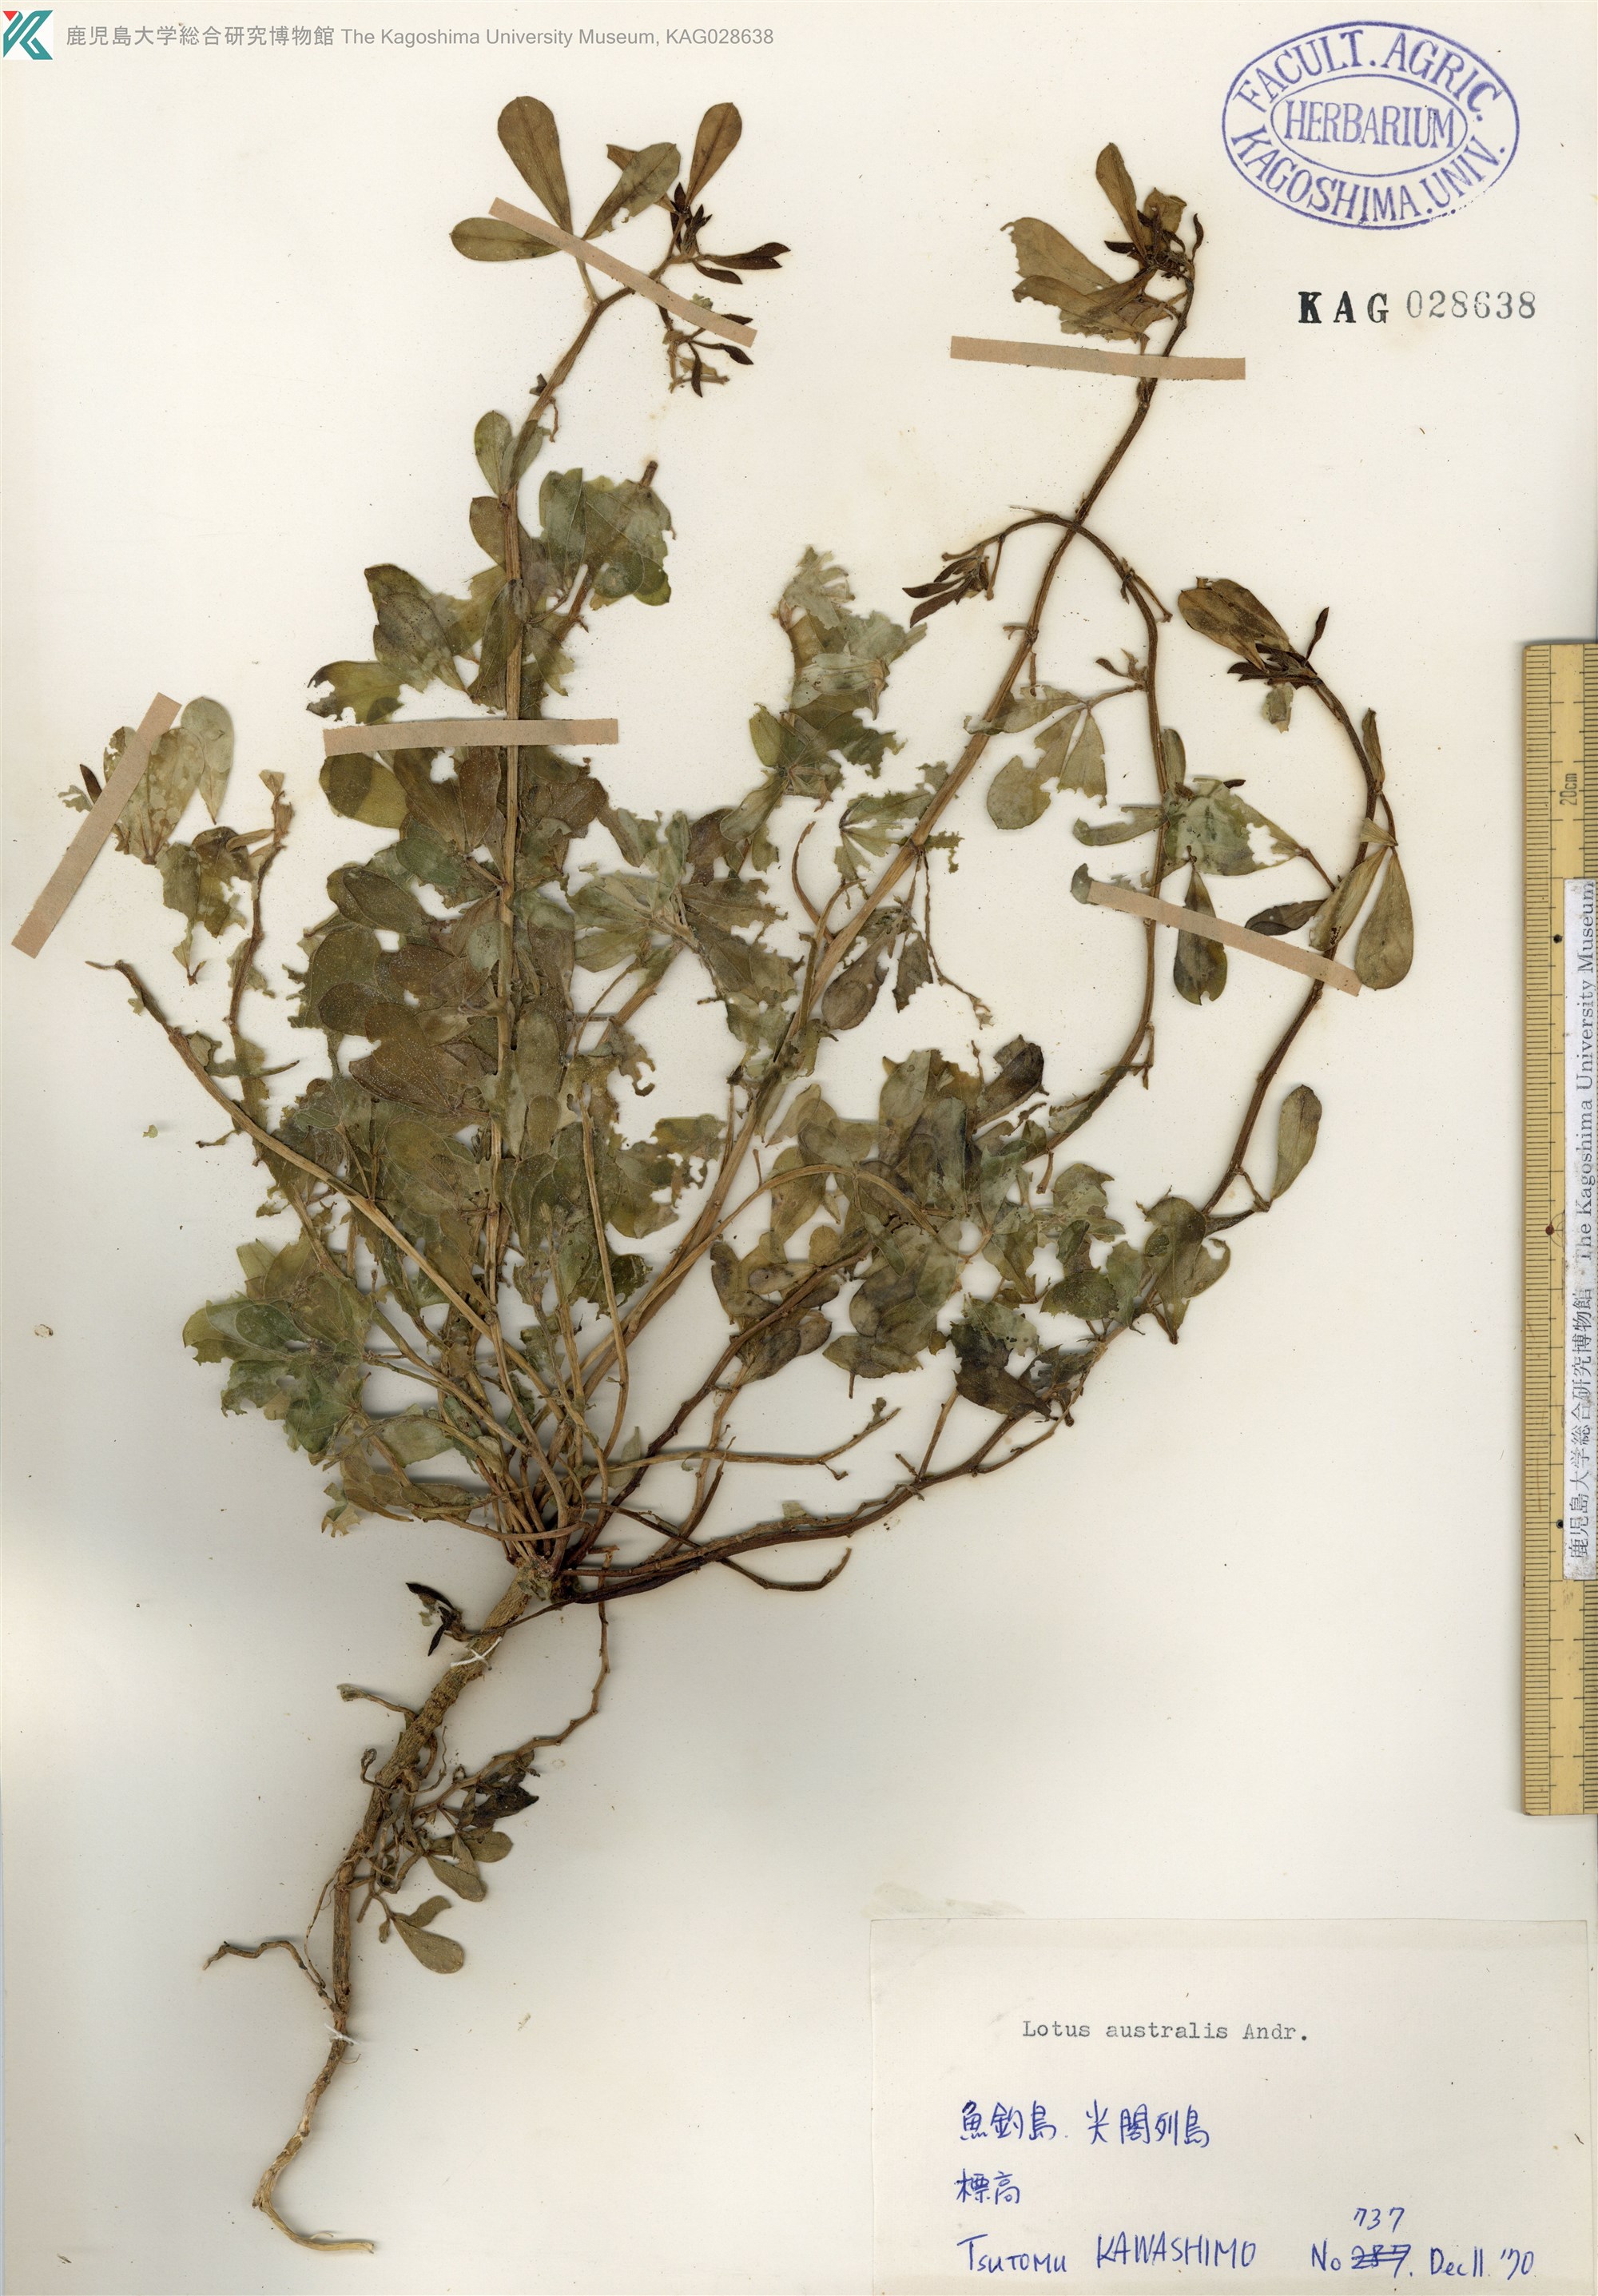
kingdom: Plantae
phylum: Tracheophyta
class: Magnoliopsida
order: Fabales
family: Fabaceae
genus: Lotus
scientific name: Lotus taitungensis
